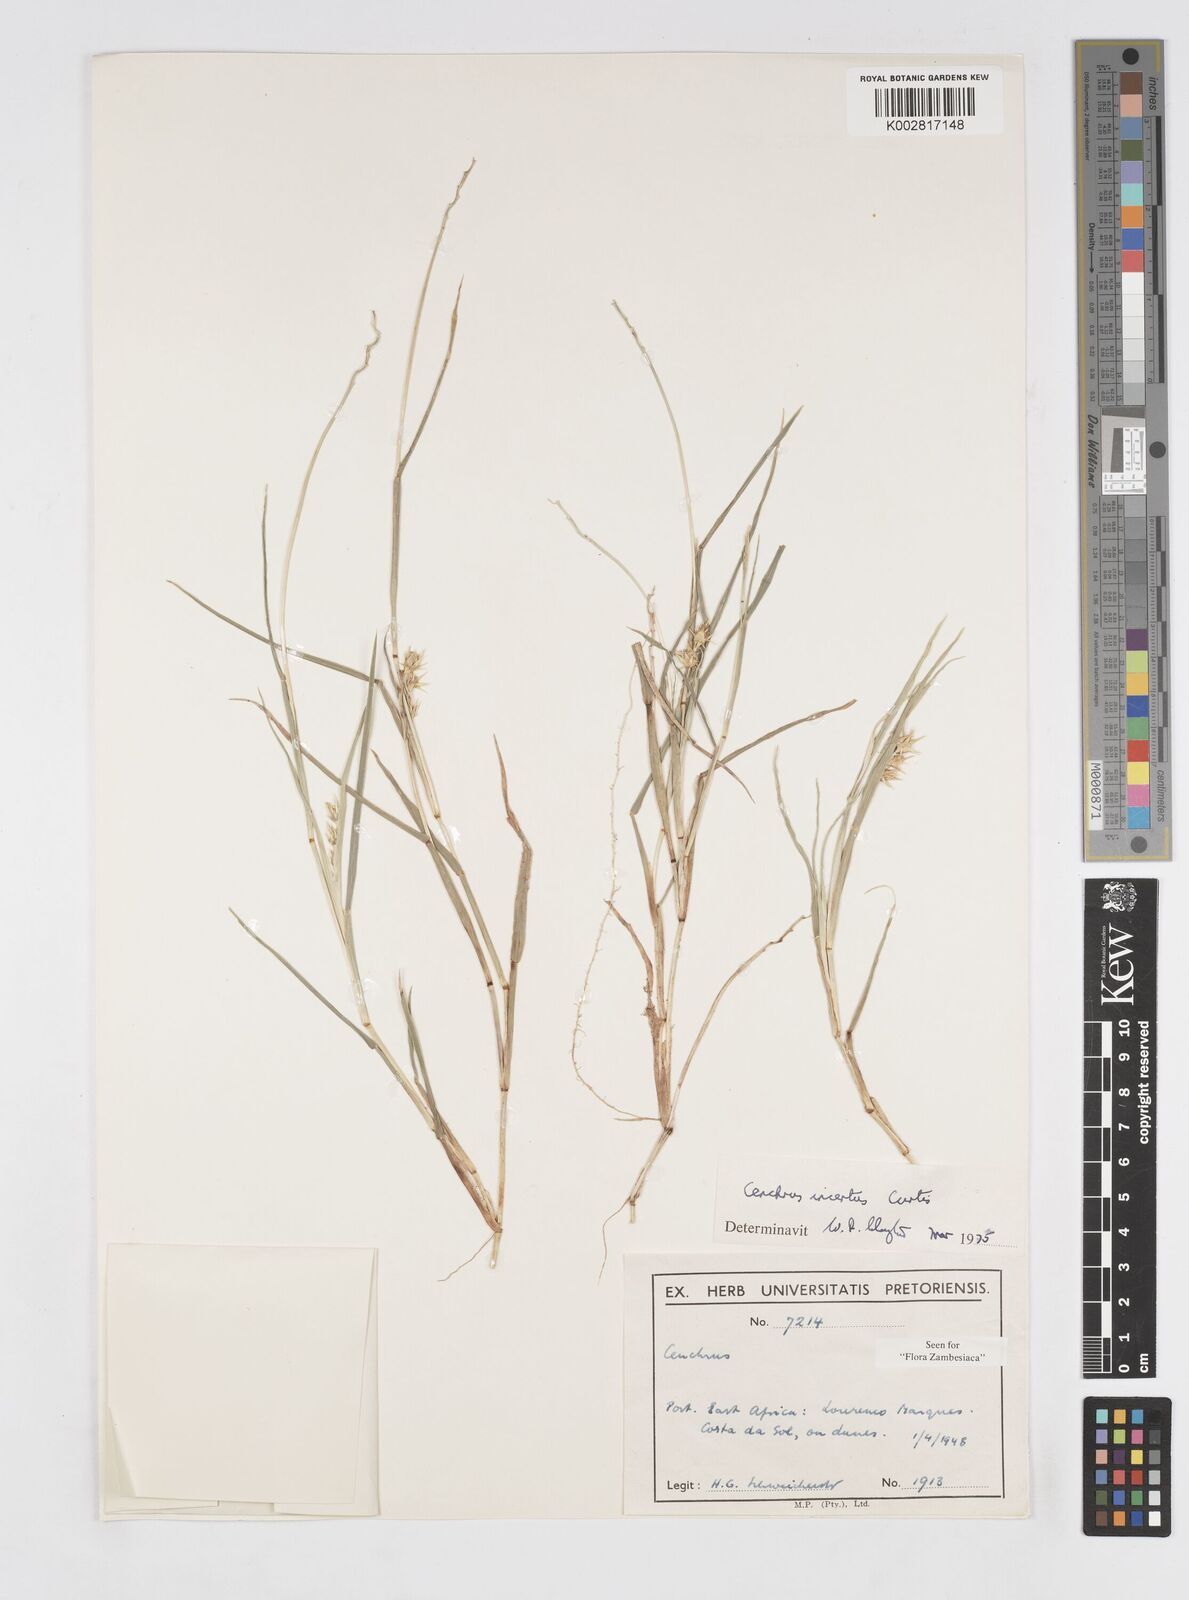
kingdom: Plantae
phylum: Tracheophyta
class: Liliopsida
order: Poales
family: Poaceae
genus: Cenchrus
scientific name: Cenchrus spinifex
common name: Coast sandbur
